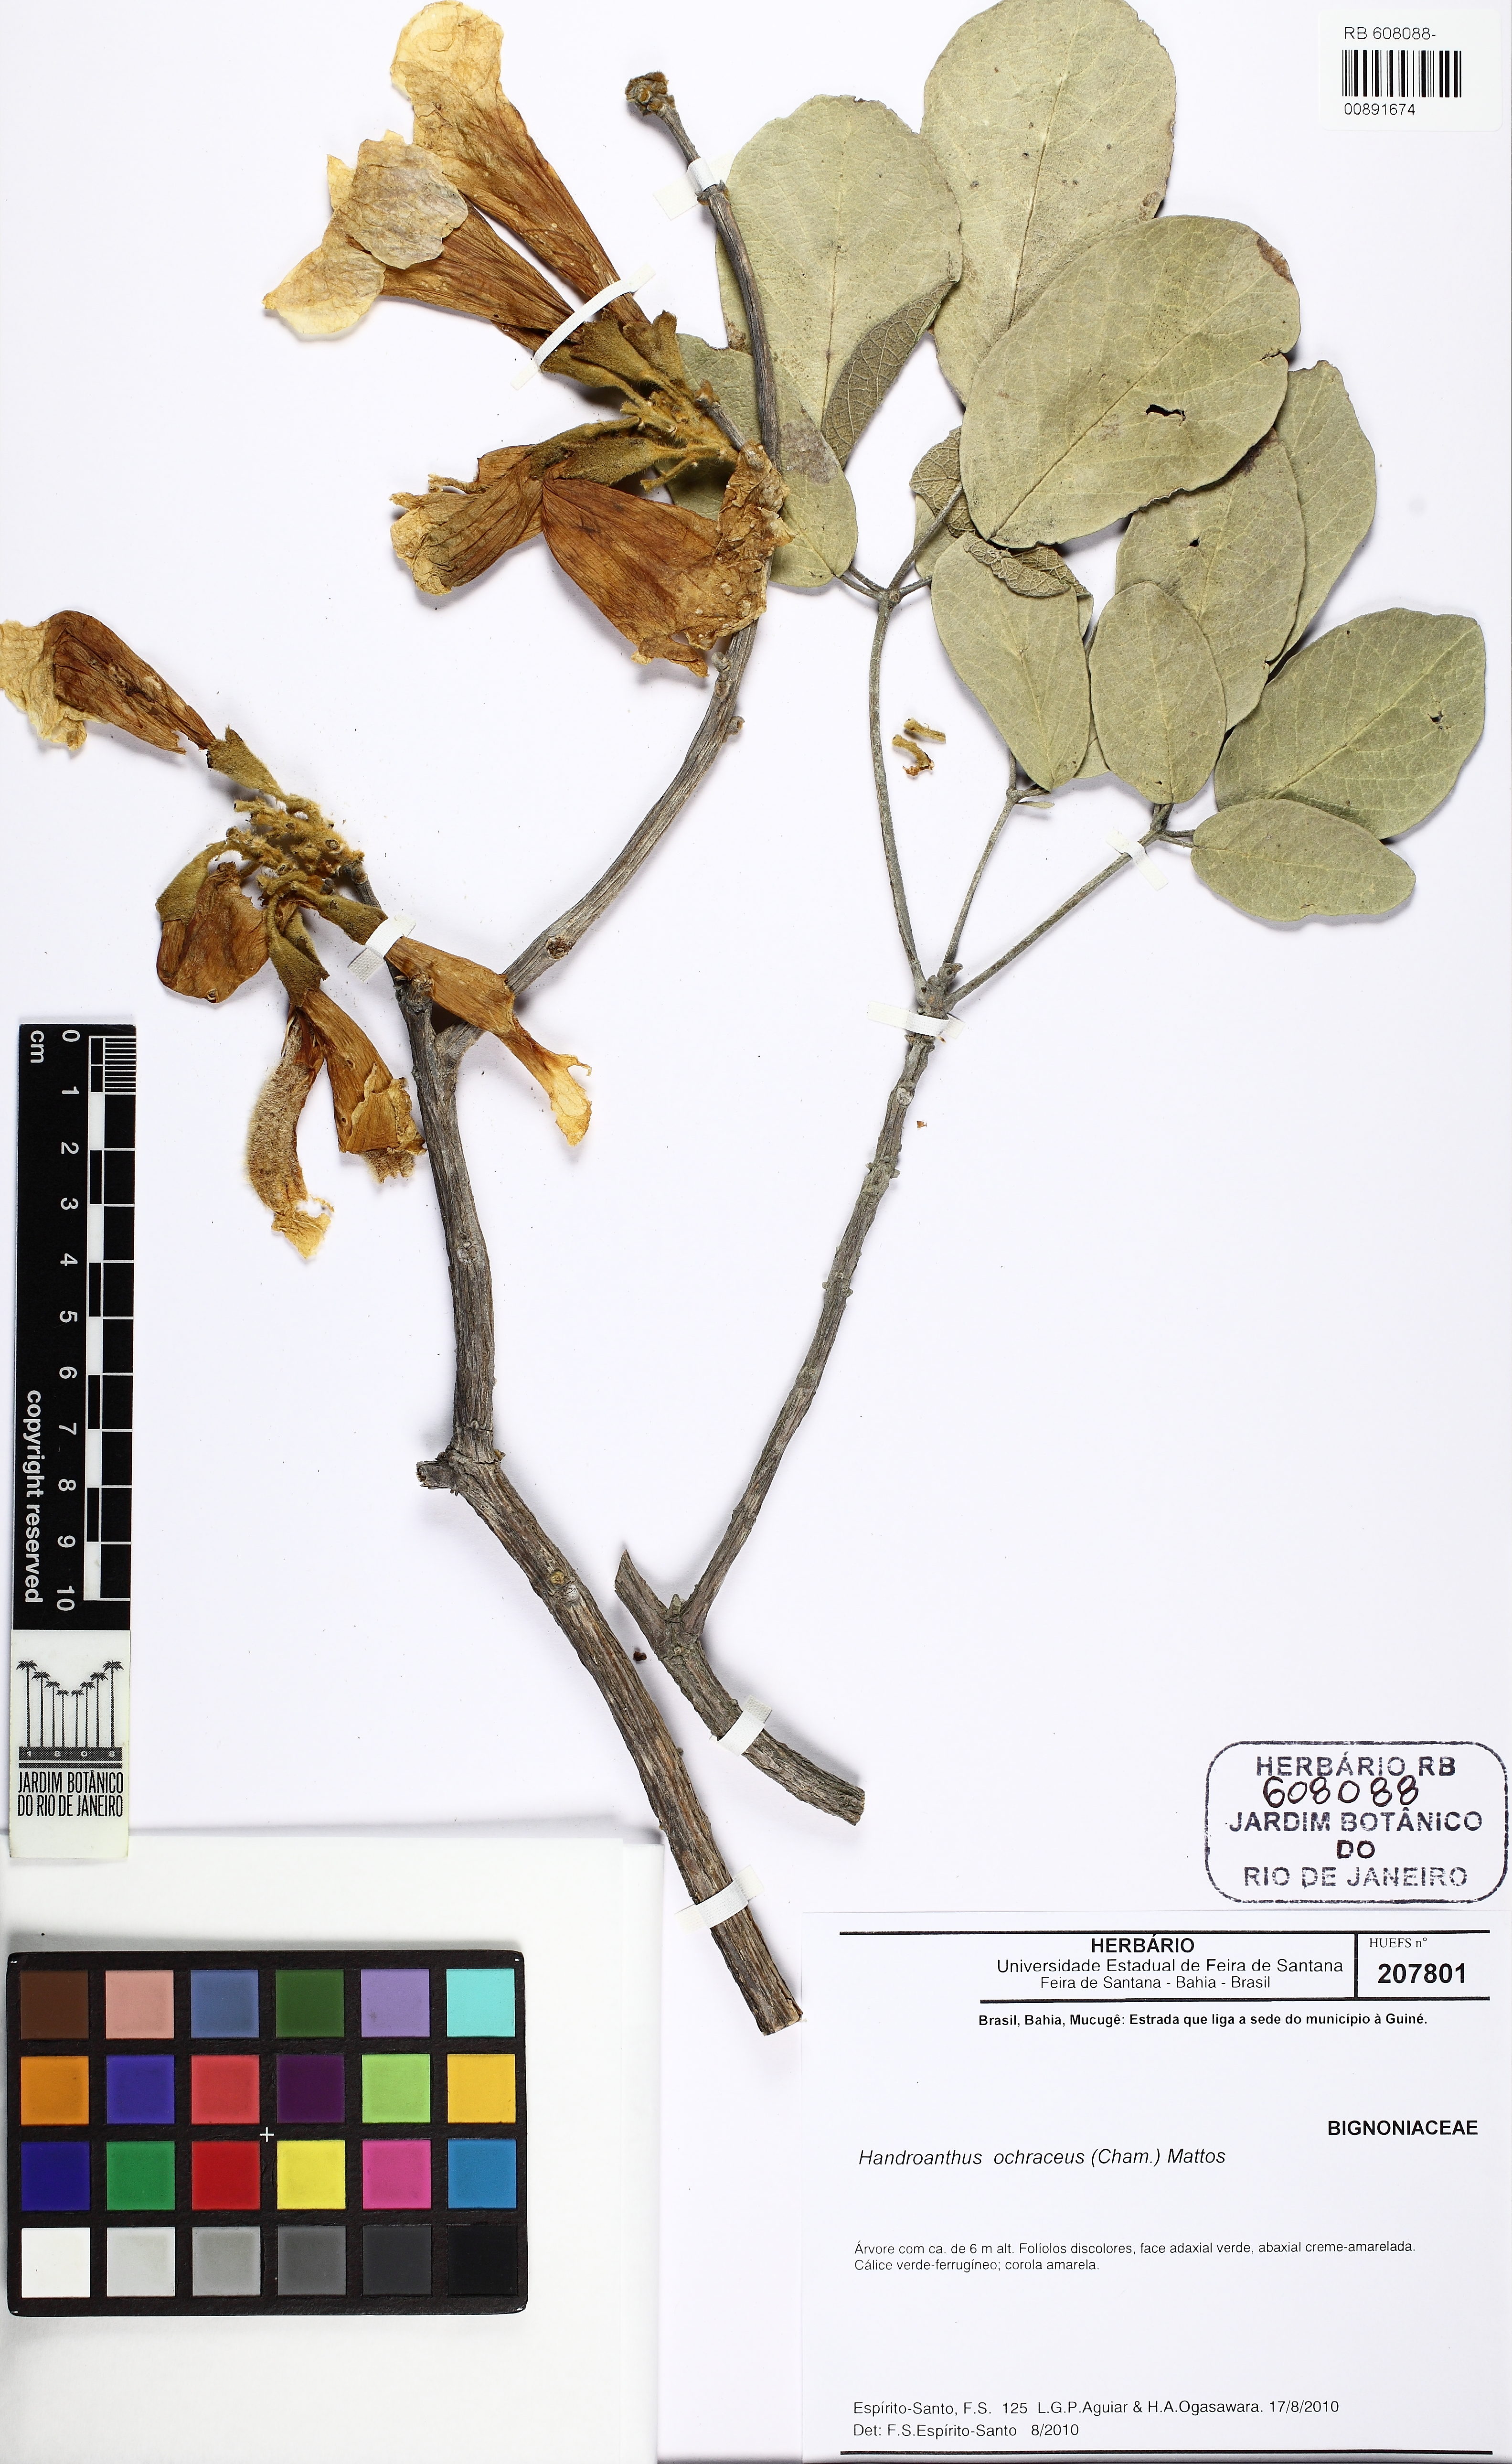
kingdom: Plantae
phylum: Tracheophyta
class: Magnoliopsida
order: Lamiales
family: Bignoniaceae
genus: Handroanthus
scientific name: Handroanthus ochraceus
